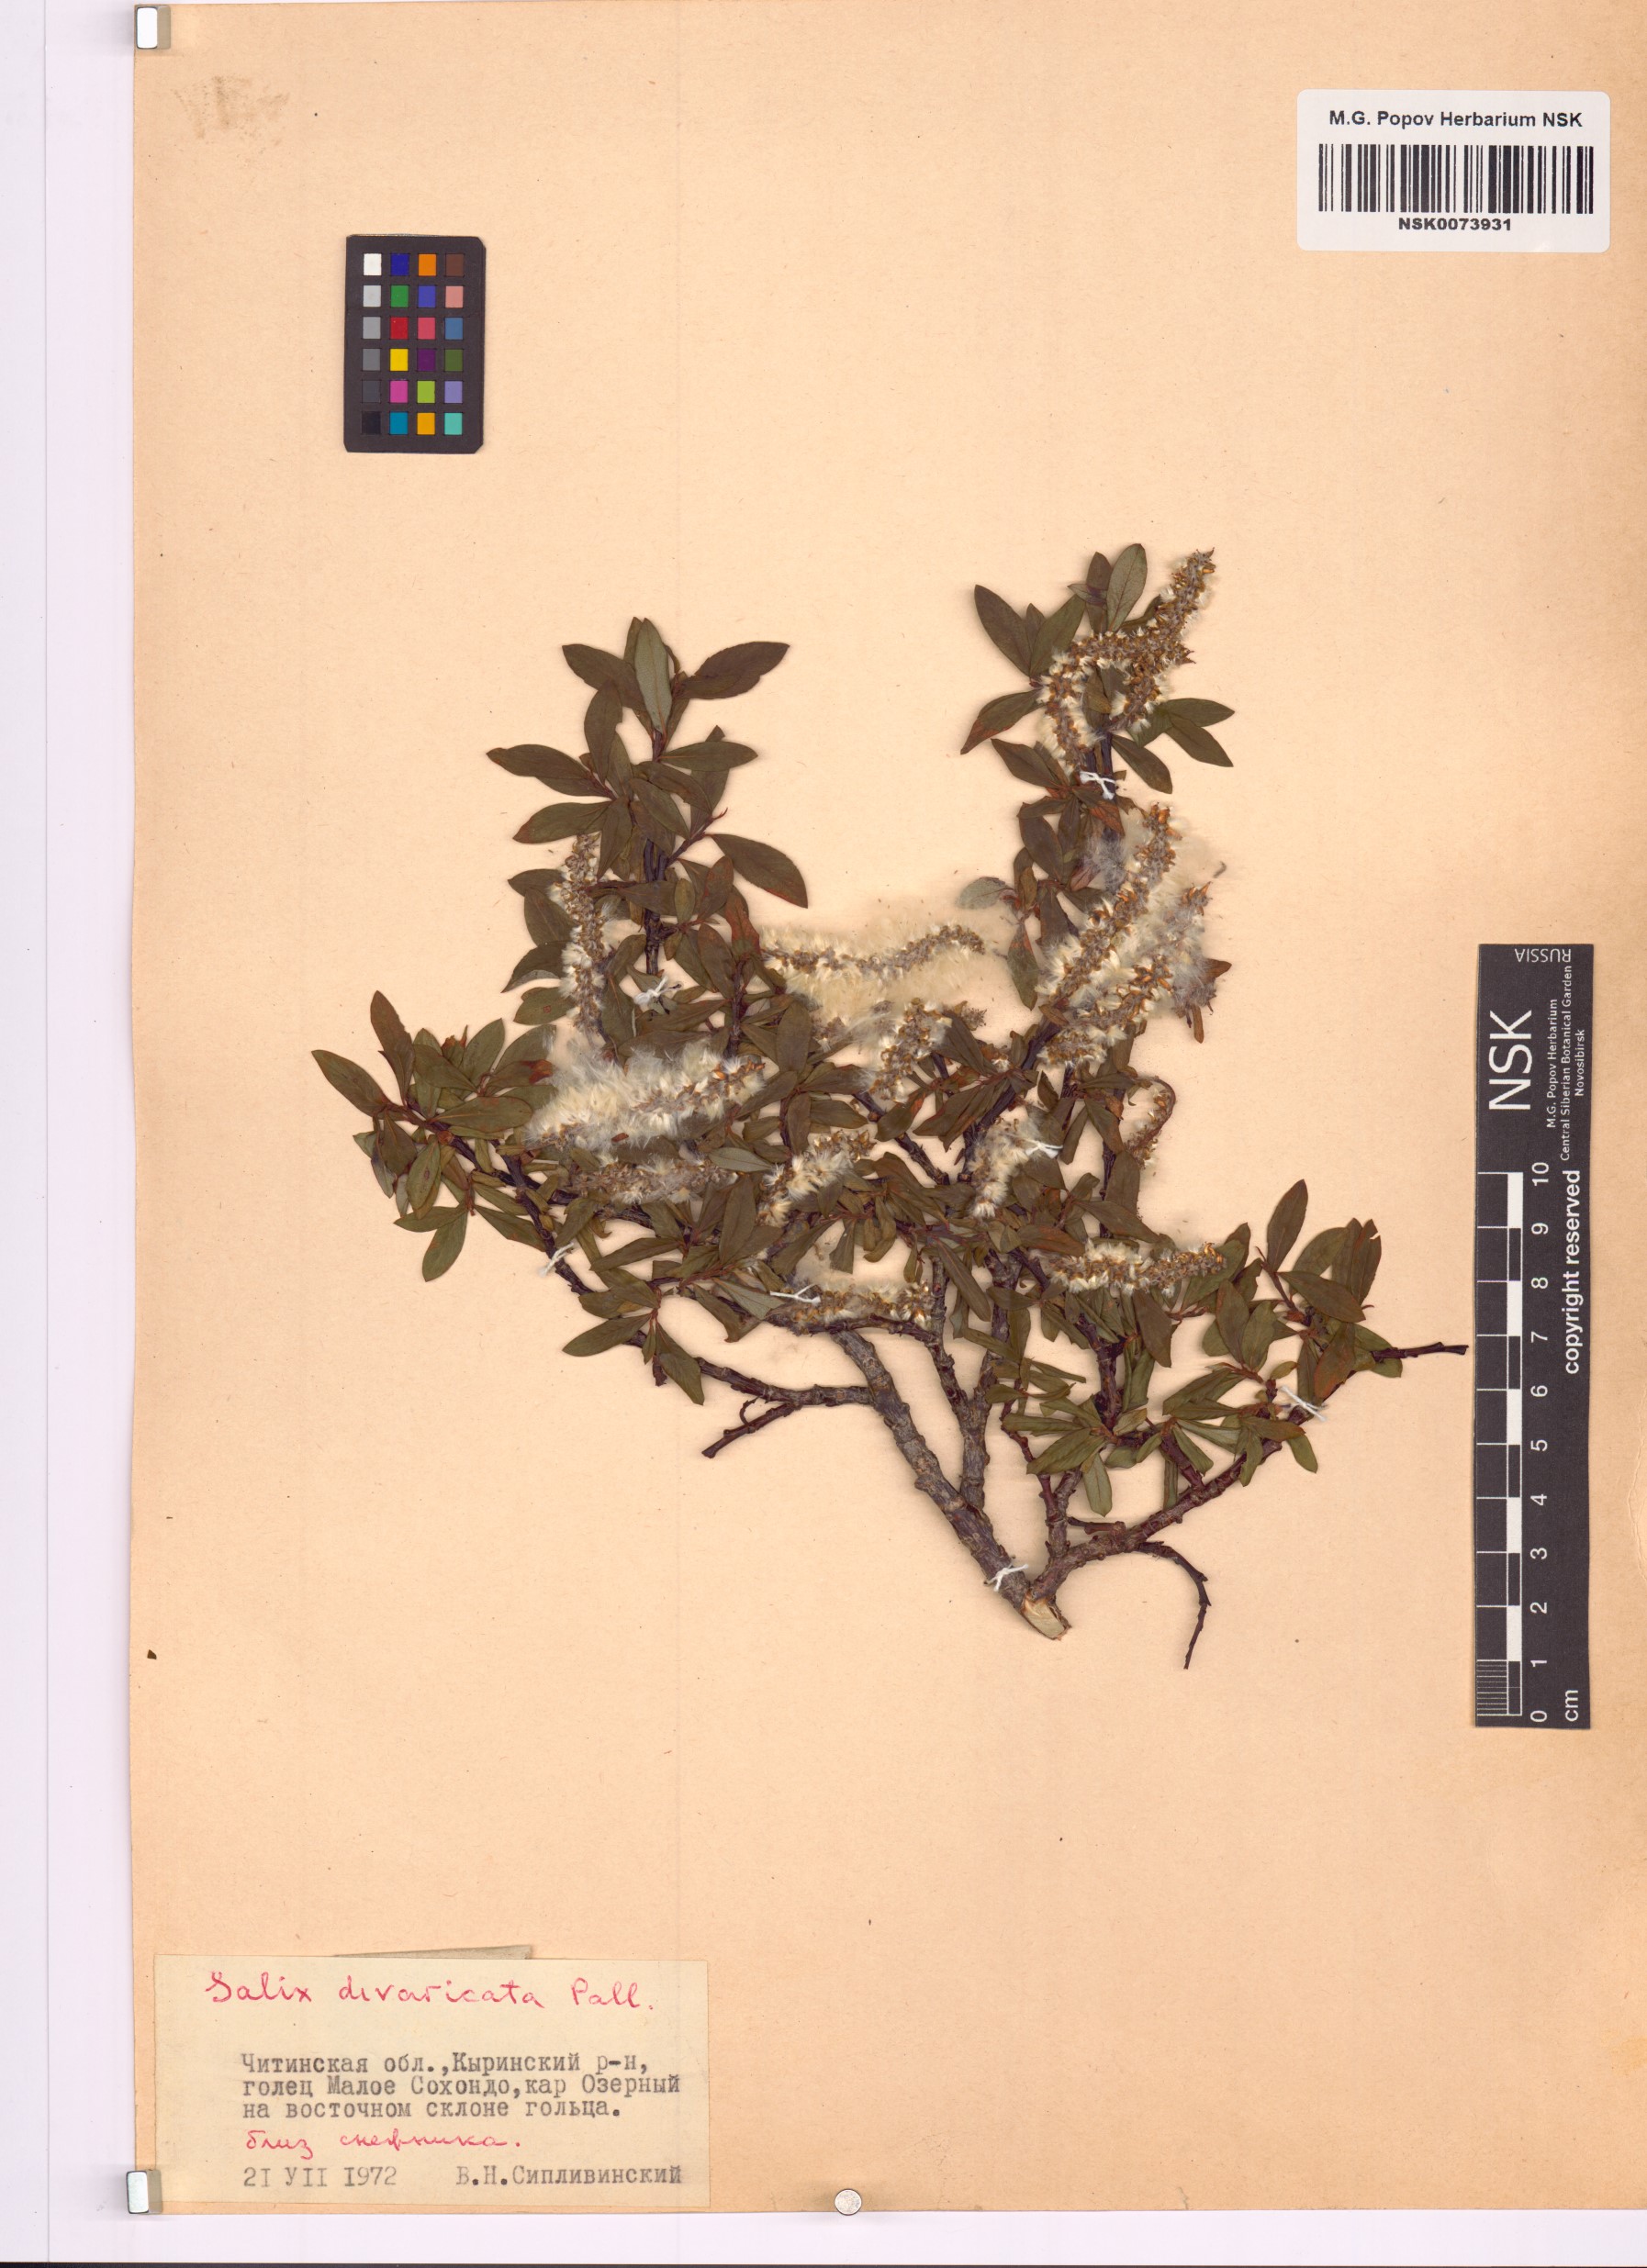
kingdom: Plantae
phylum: Tracheophyta
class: Magnoliopsida
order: Malpighiales
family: Salicaceae
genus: Salix
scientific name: Salix divaricata
